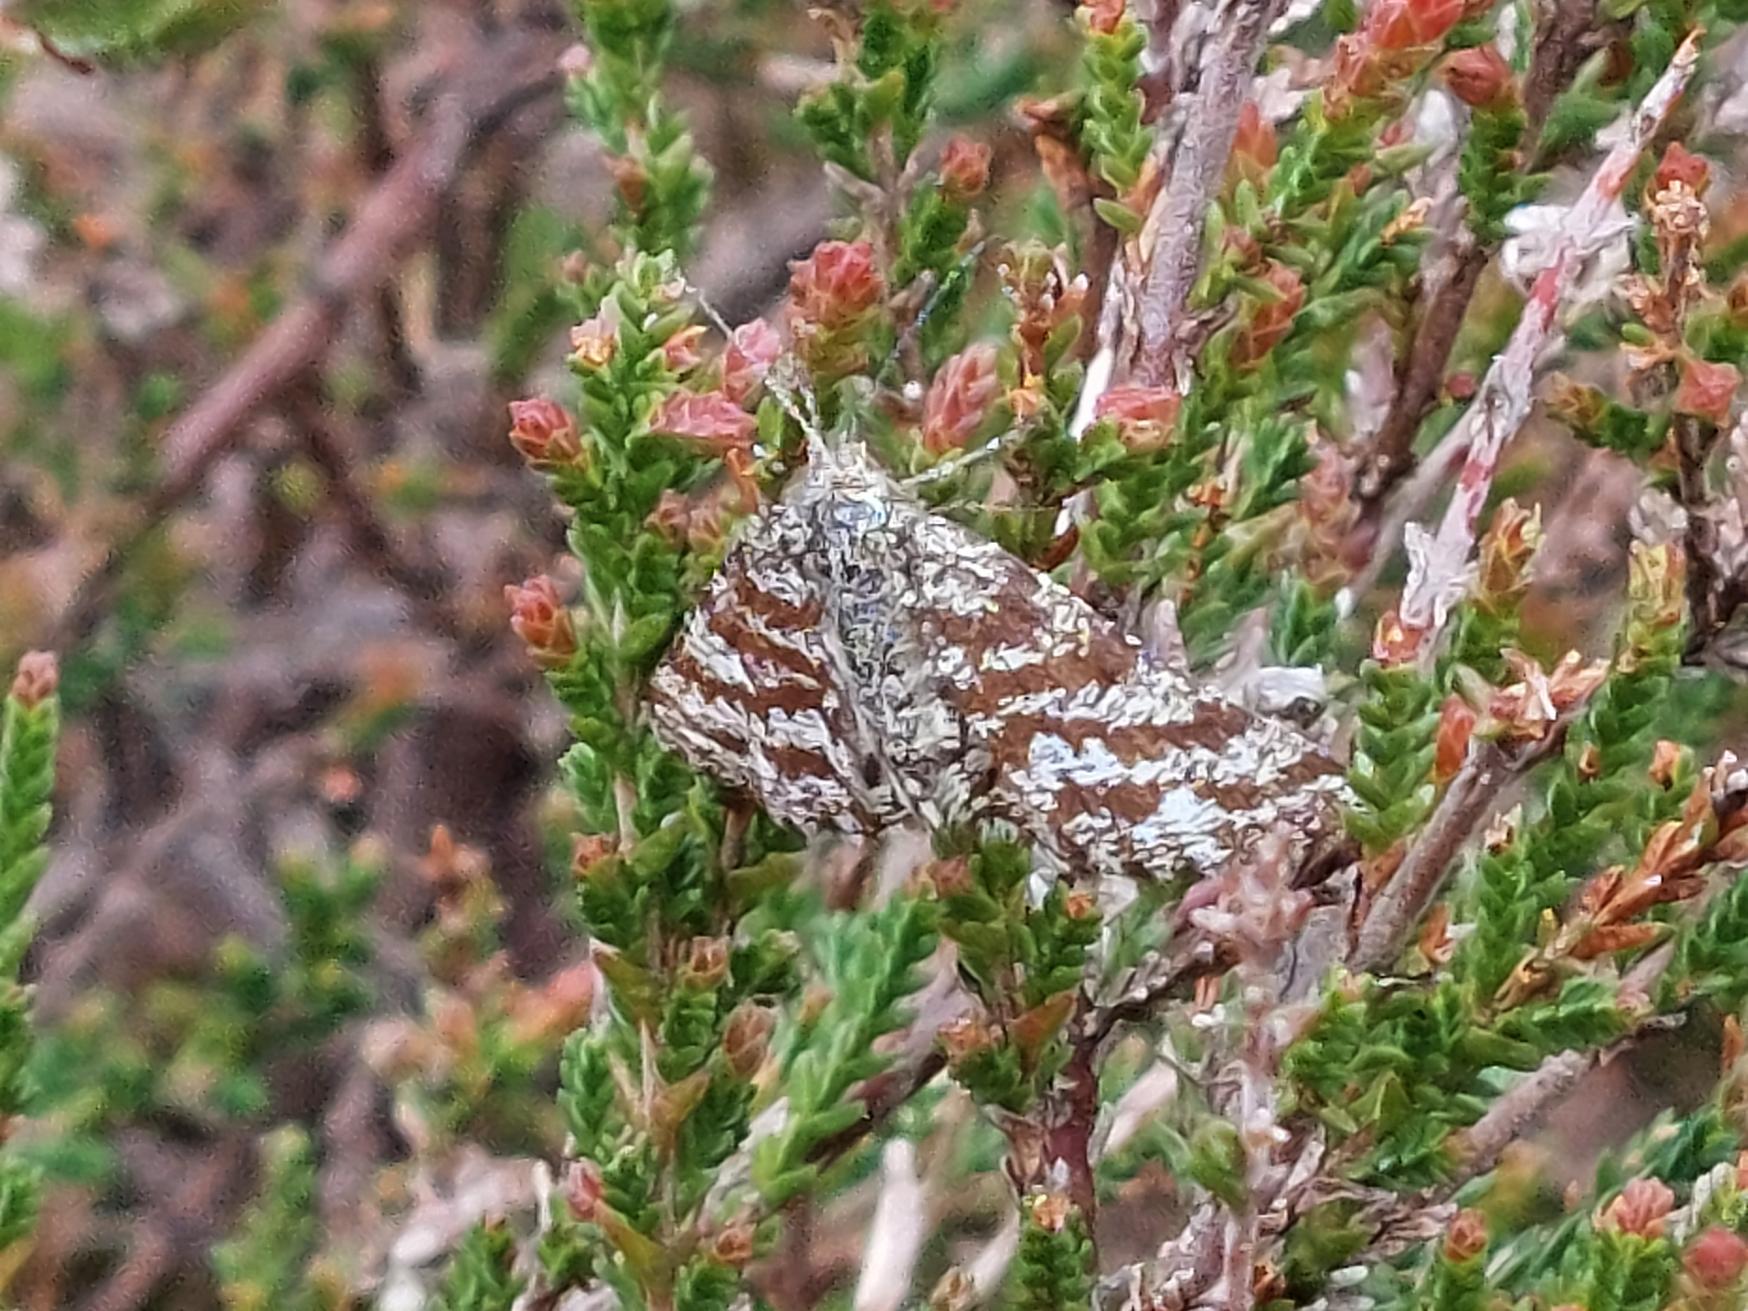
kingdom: Animalia
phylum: Arthropoda
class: Insecta
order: Lepidoptera
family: Geometridae
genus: Ematurga
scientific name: Ematurga atomaria
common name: Lyngmåler
